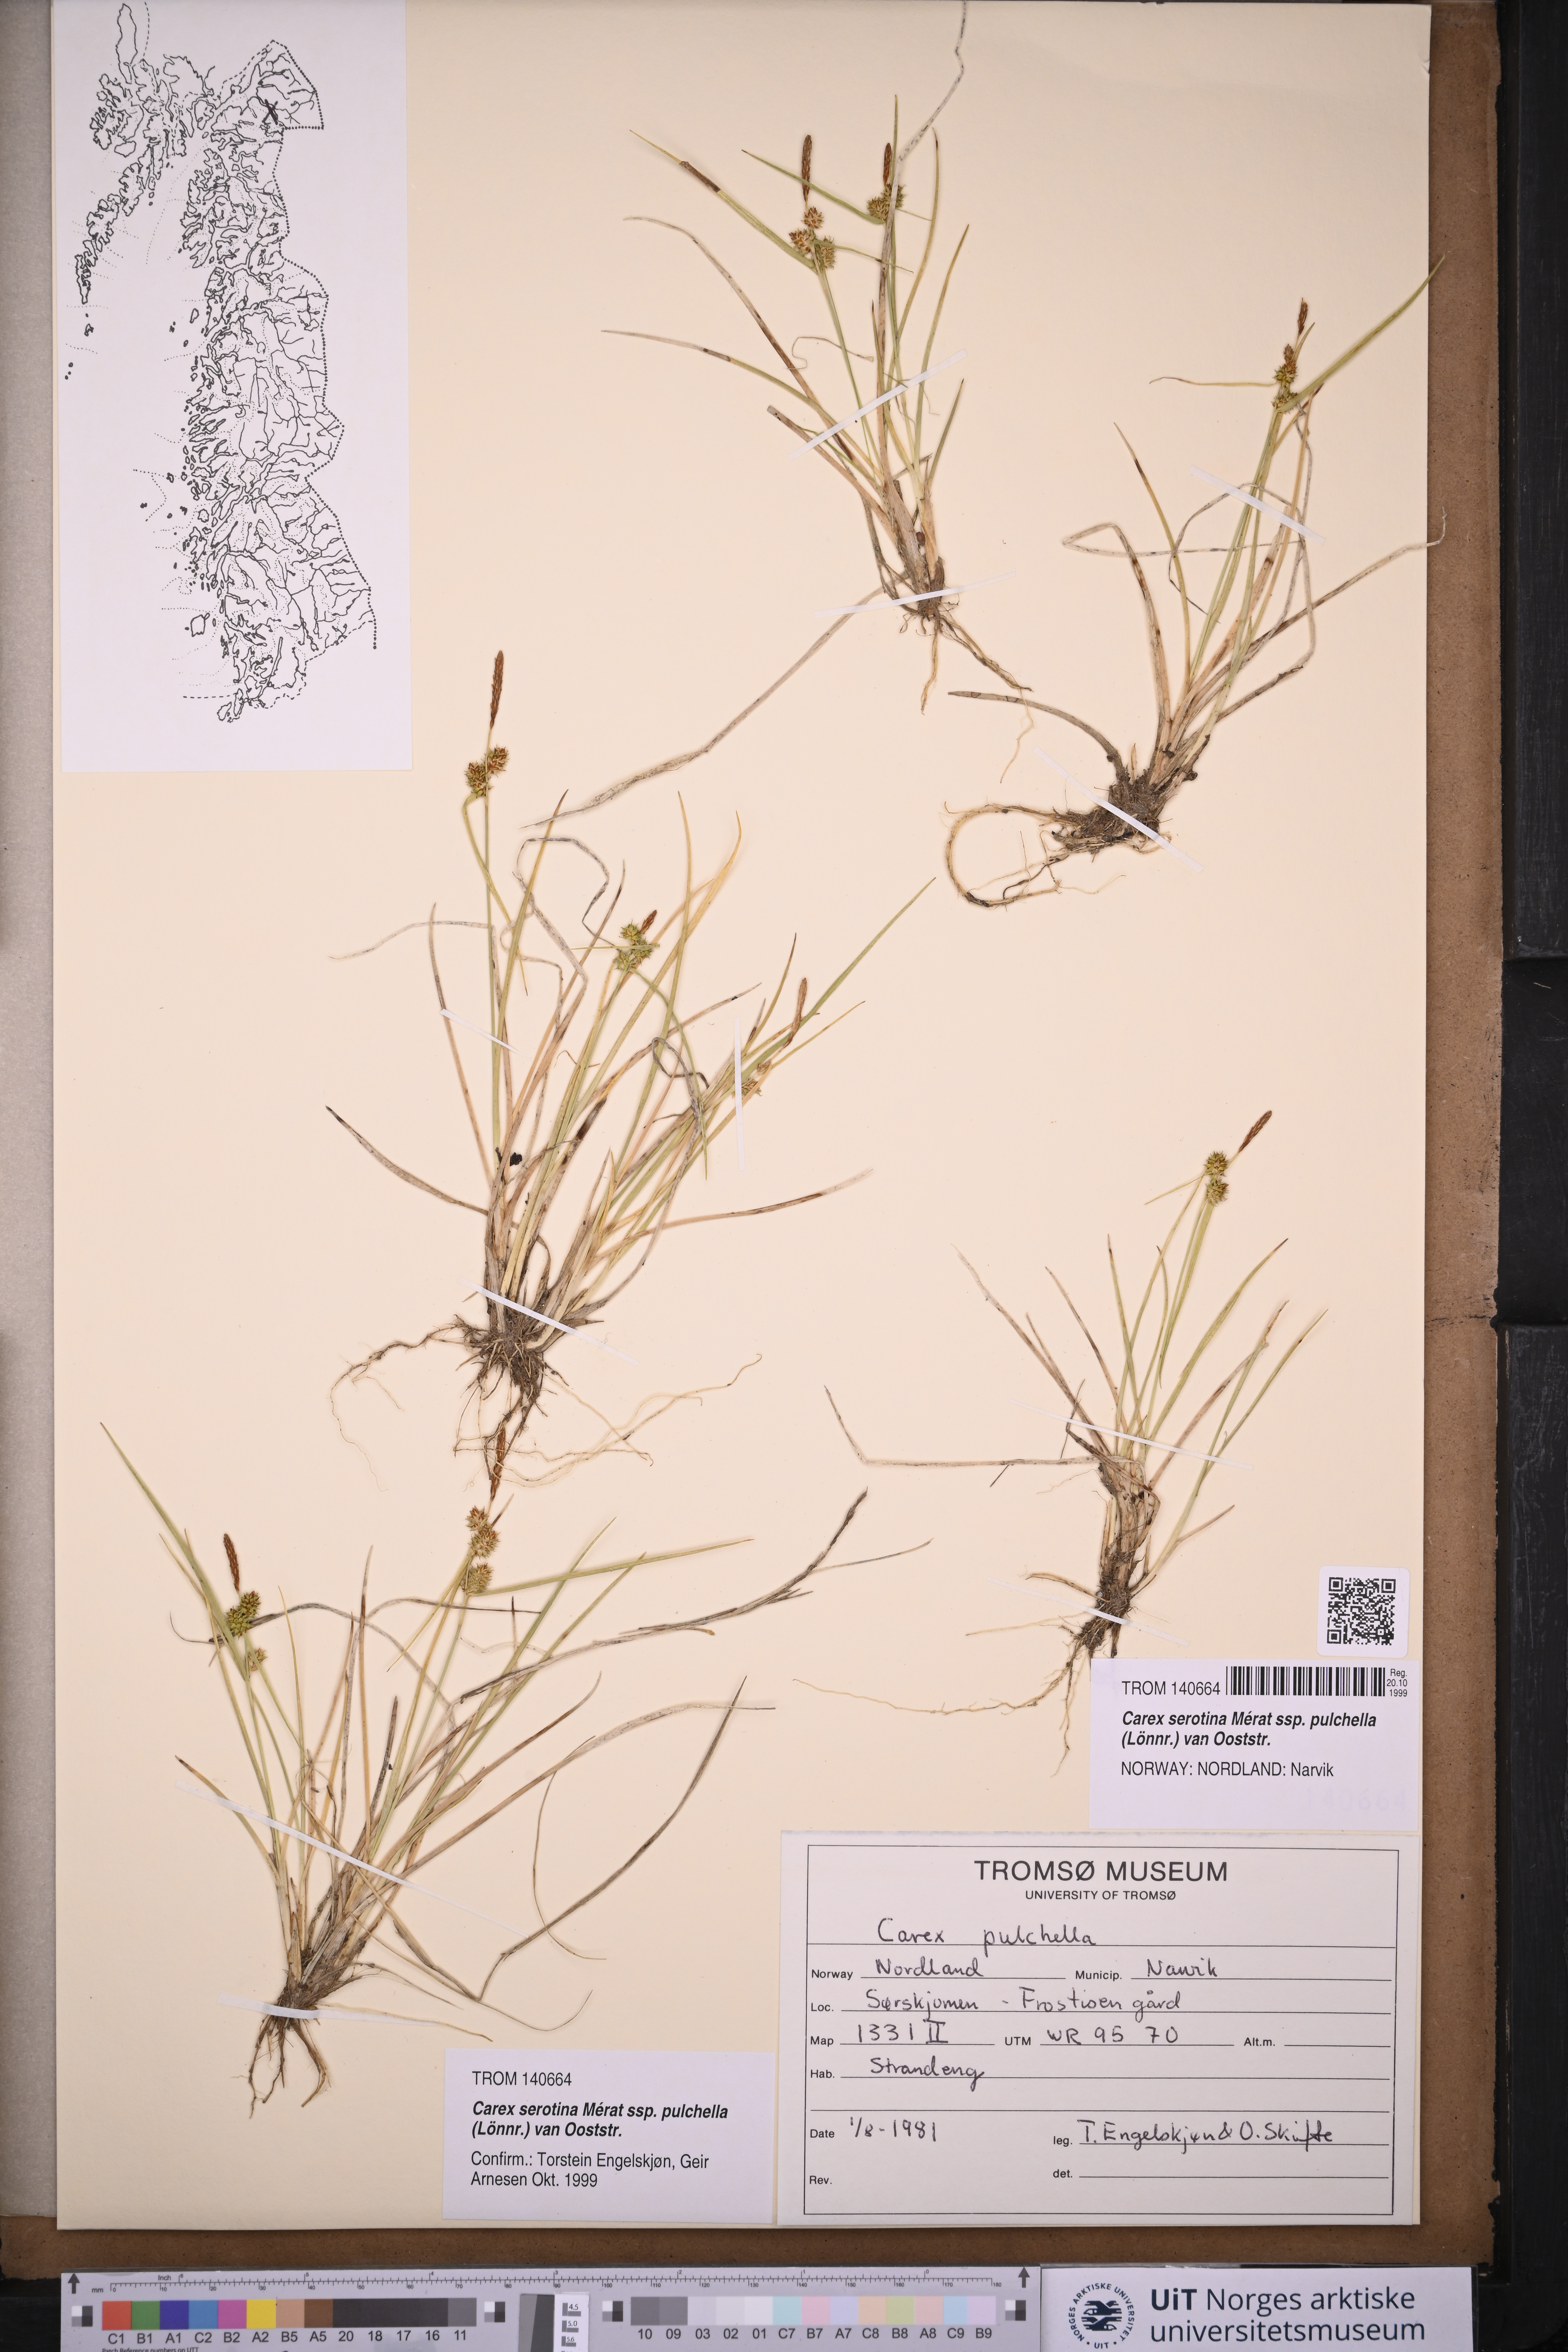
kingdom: Plantae
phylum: Tracheophyta
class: Liliopsida
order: Poales
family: Cyperaceae
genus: Carex
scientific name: Carex oederi
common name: Common & small-fruited yellow-sedge
